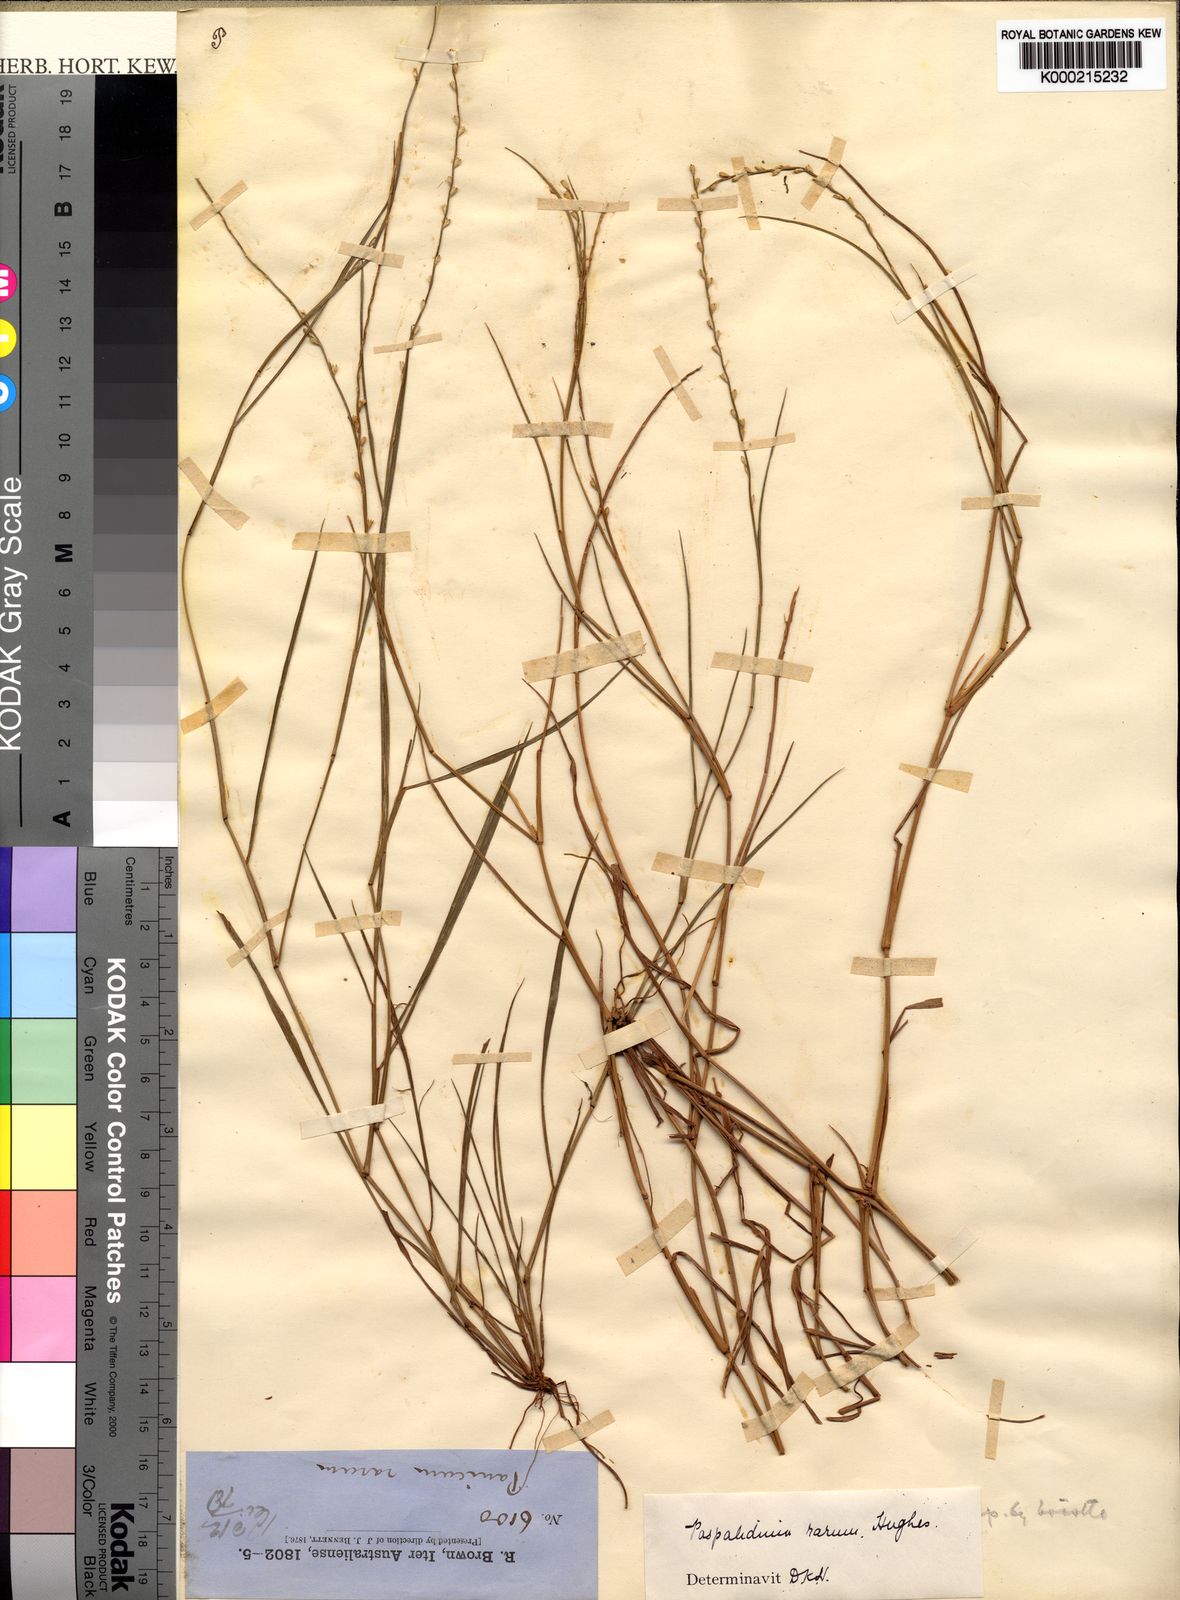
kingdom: Plantae
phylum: Tracheophyta
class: Liliopsida
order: Poales
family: Poaceae
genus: Setaria
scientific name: Setaria rara
